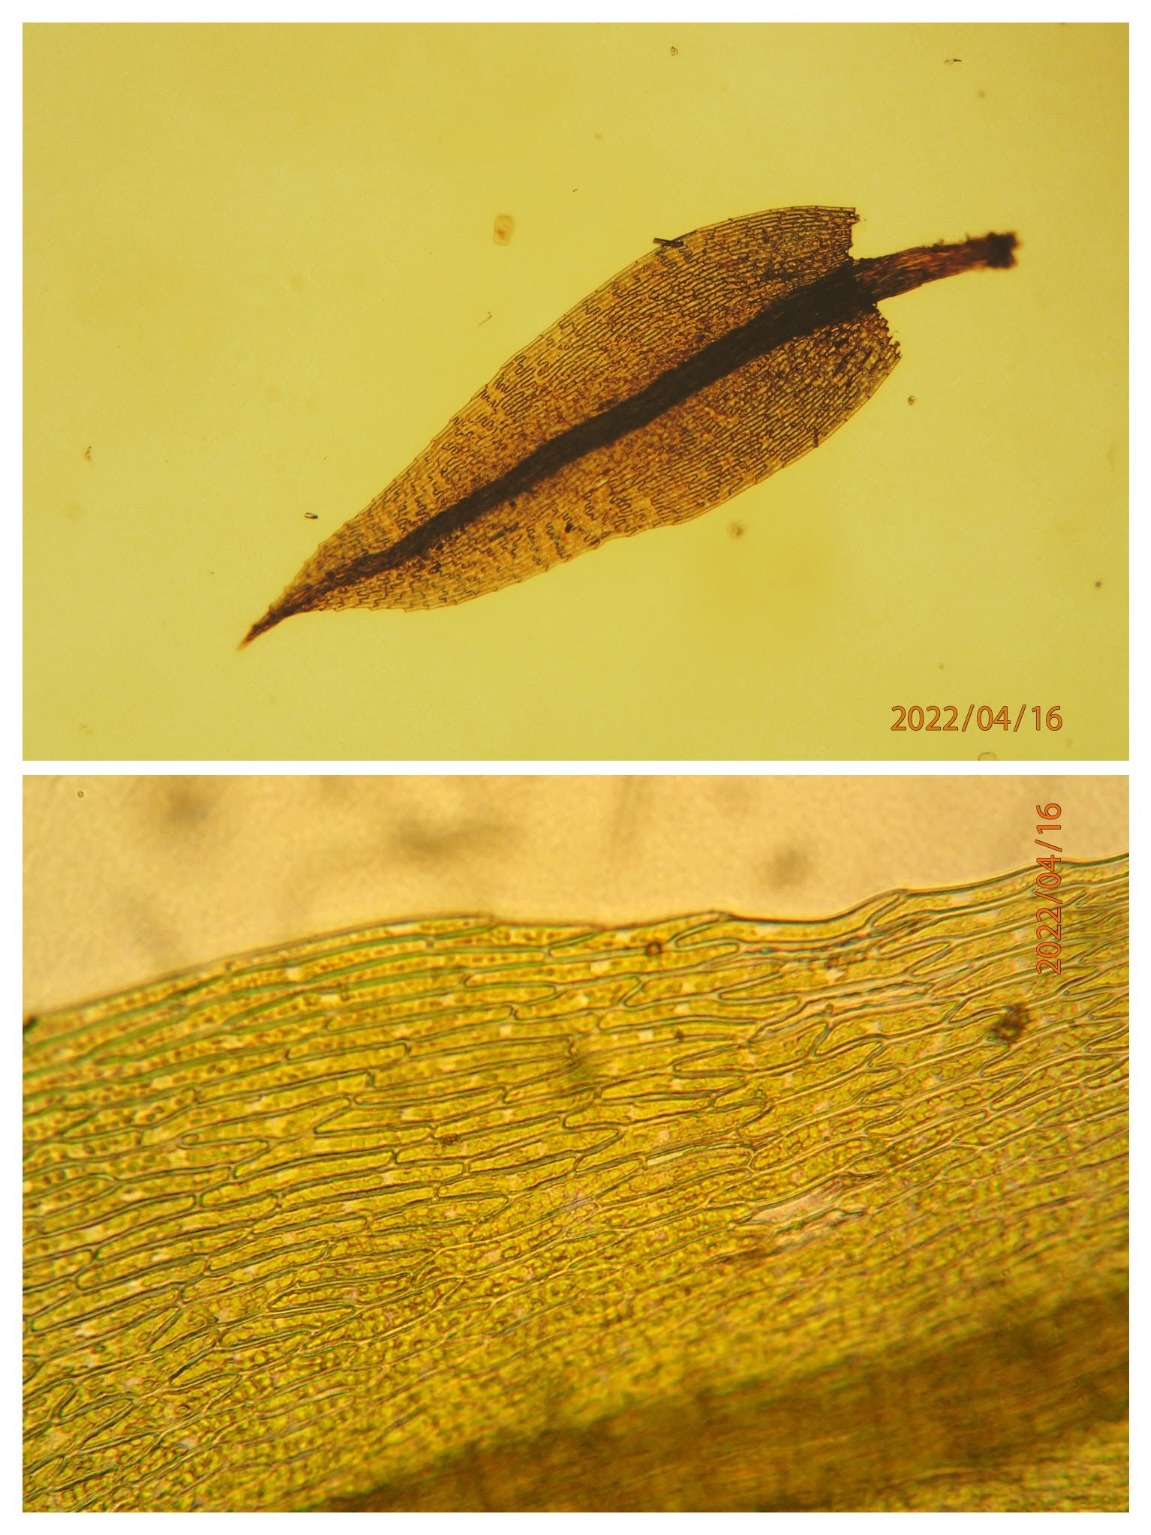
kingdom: Plantae
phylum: Bryophyta
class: Bryopsida
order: Bryales
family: Mniaceae
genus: Pohlia
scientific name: Pohlia nutans
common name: Almindelig nikkemos
